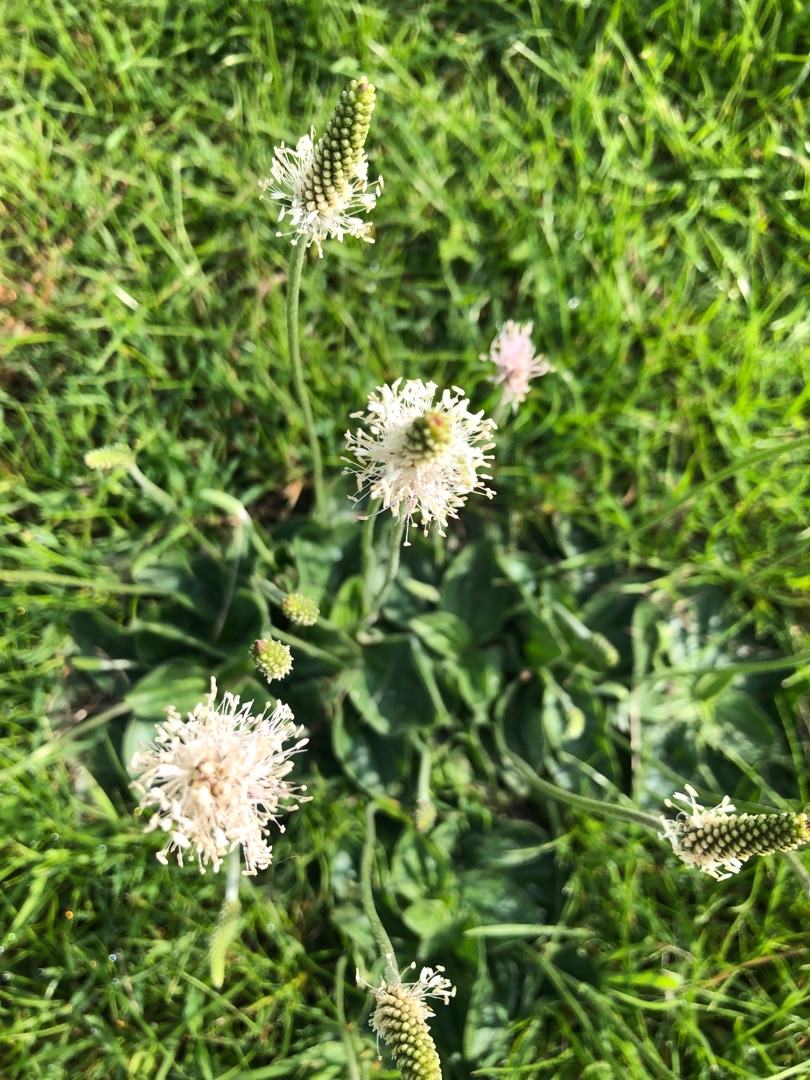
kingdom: Plantae
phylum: Tracheophyta
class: Magnoliopsida
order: Lamiales
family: Plantaginaceae
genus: Plantago
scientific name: Plantago media
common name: Dunet vejbred
